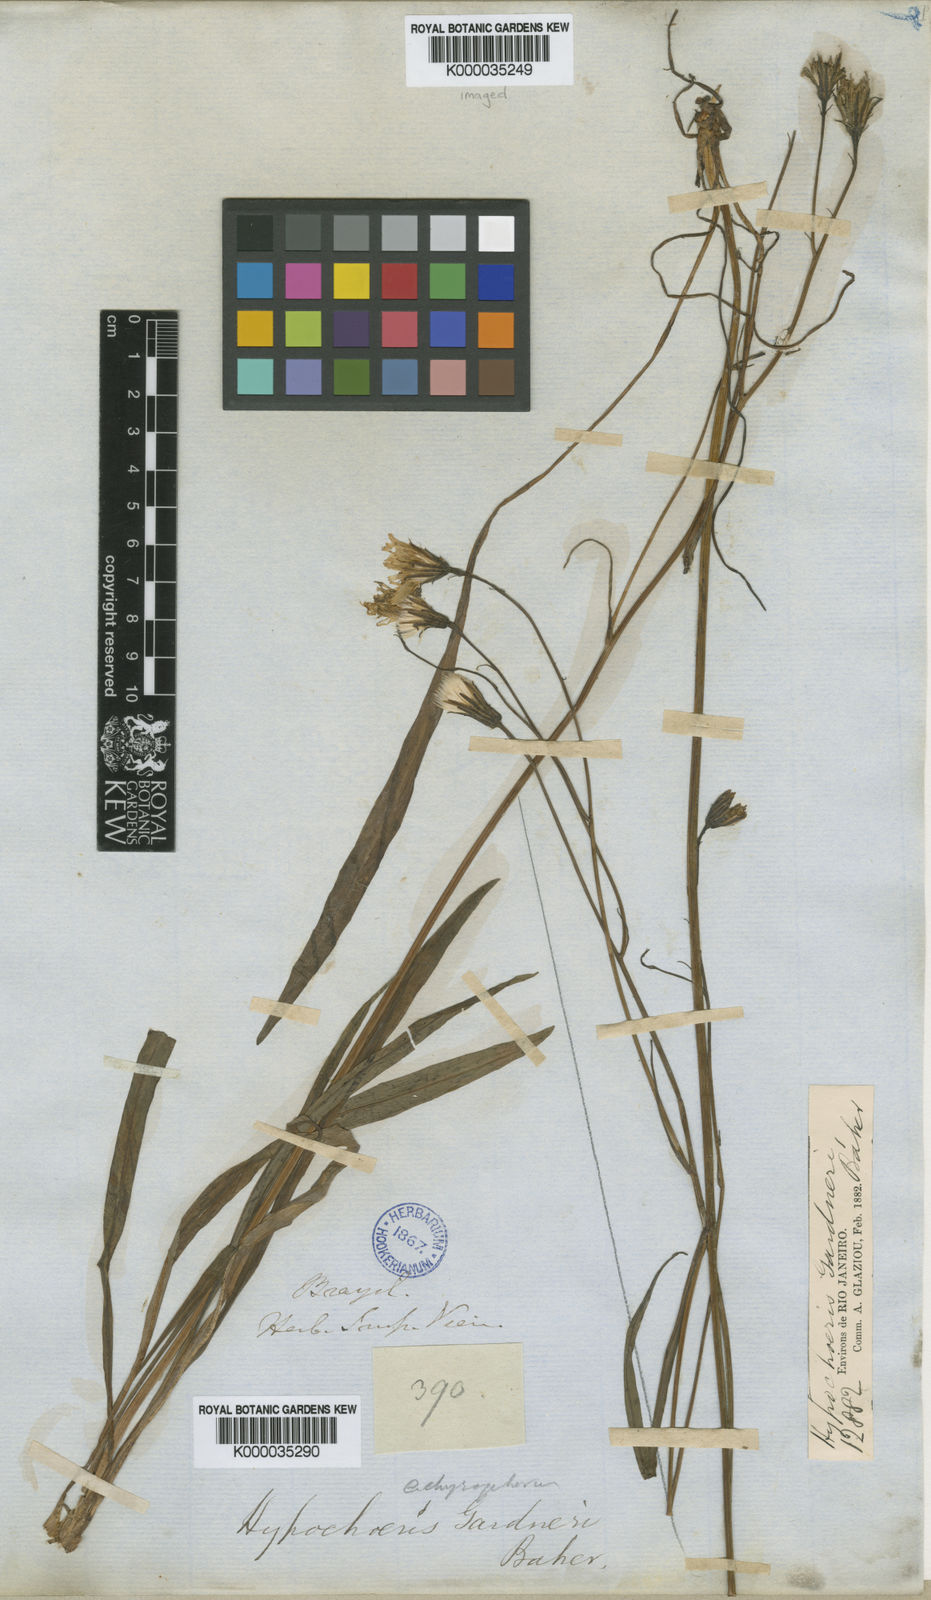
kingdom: Plantae
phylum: Tracheophyta
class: Magnoliopsida
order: Asterales
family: Asteraceae
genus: Hypochaeris
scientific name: Hypochaeris lutea
